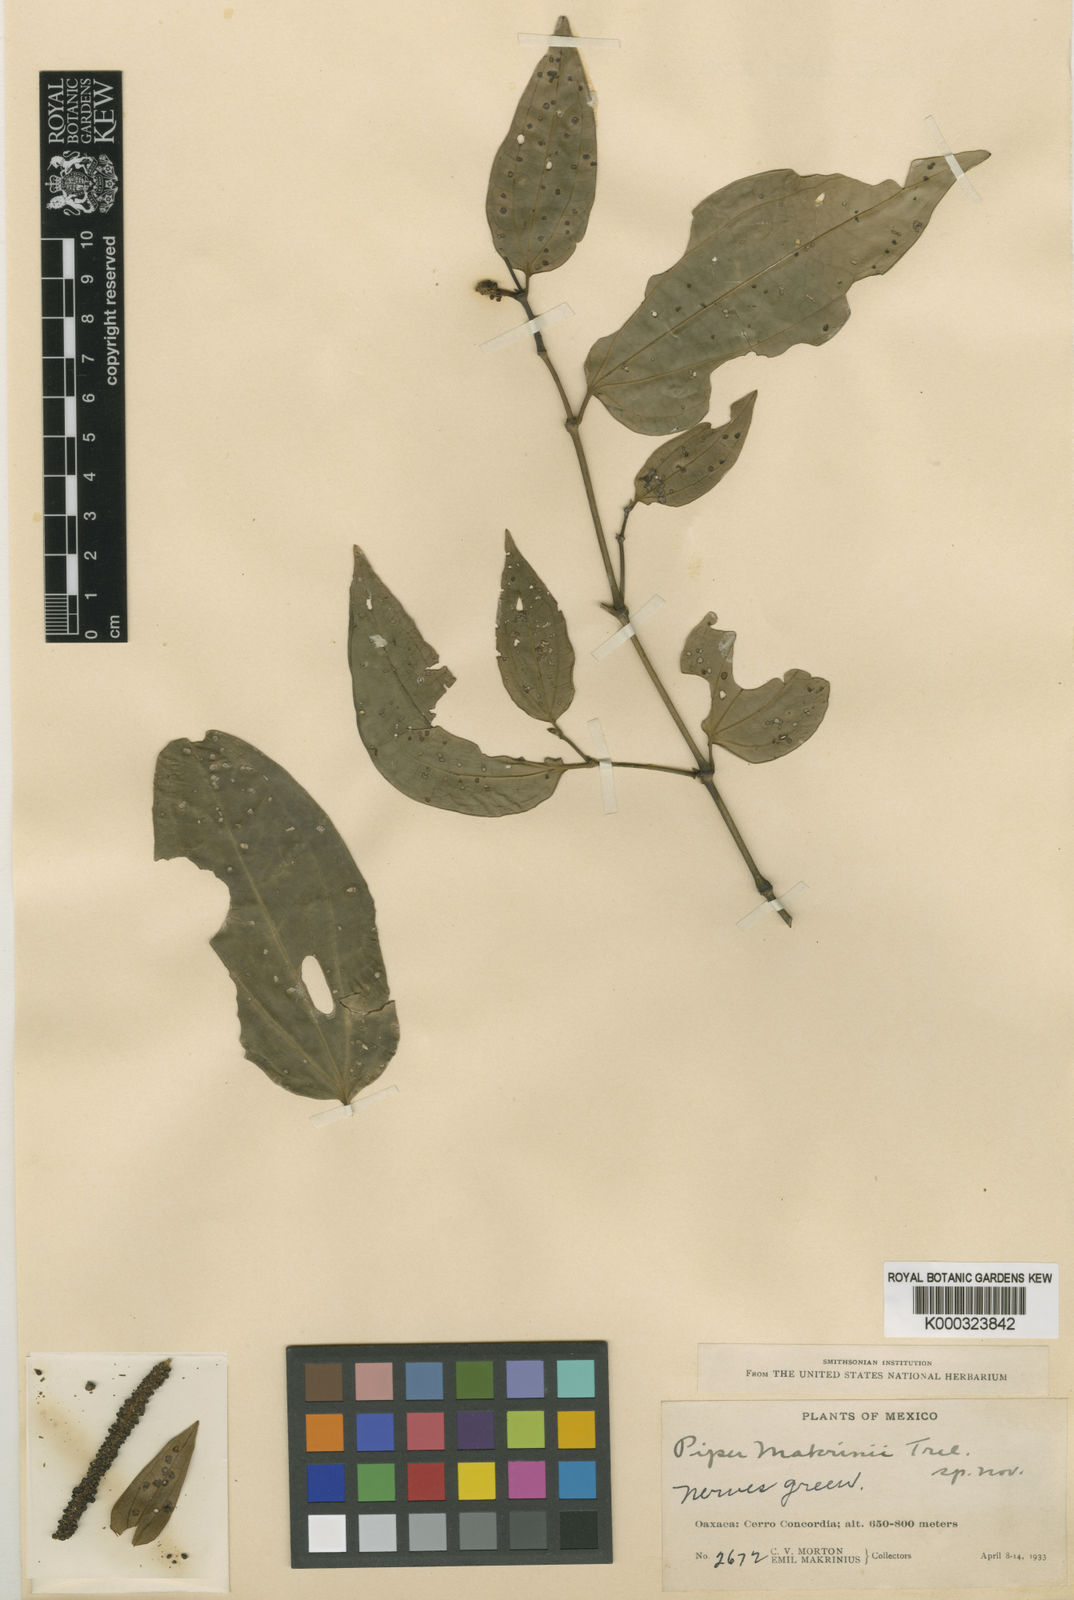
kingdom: Plantae
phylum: Tracheophyta
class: Magnoliopsida
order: Piperales
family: Piperaceae
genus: Piper
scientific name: Piper
